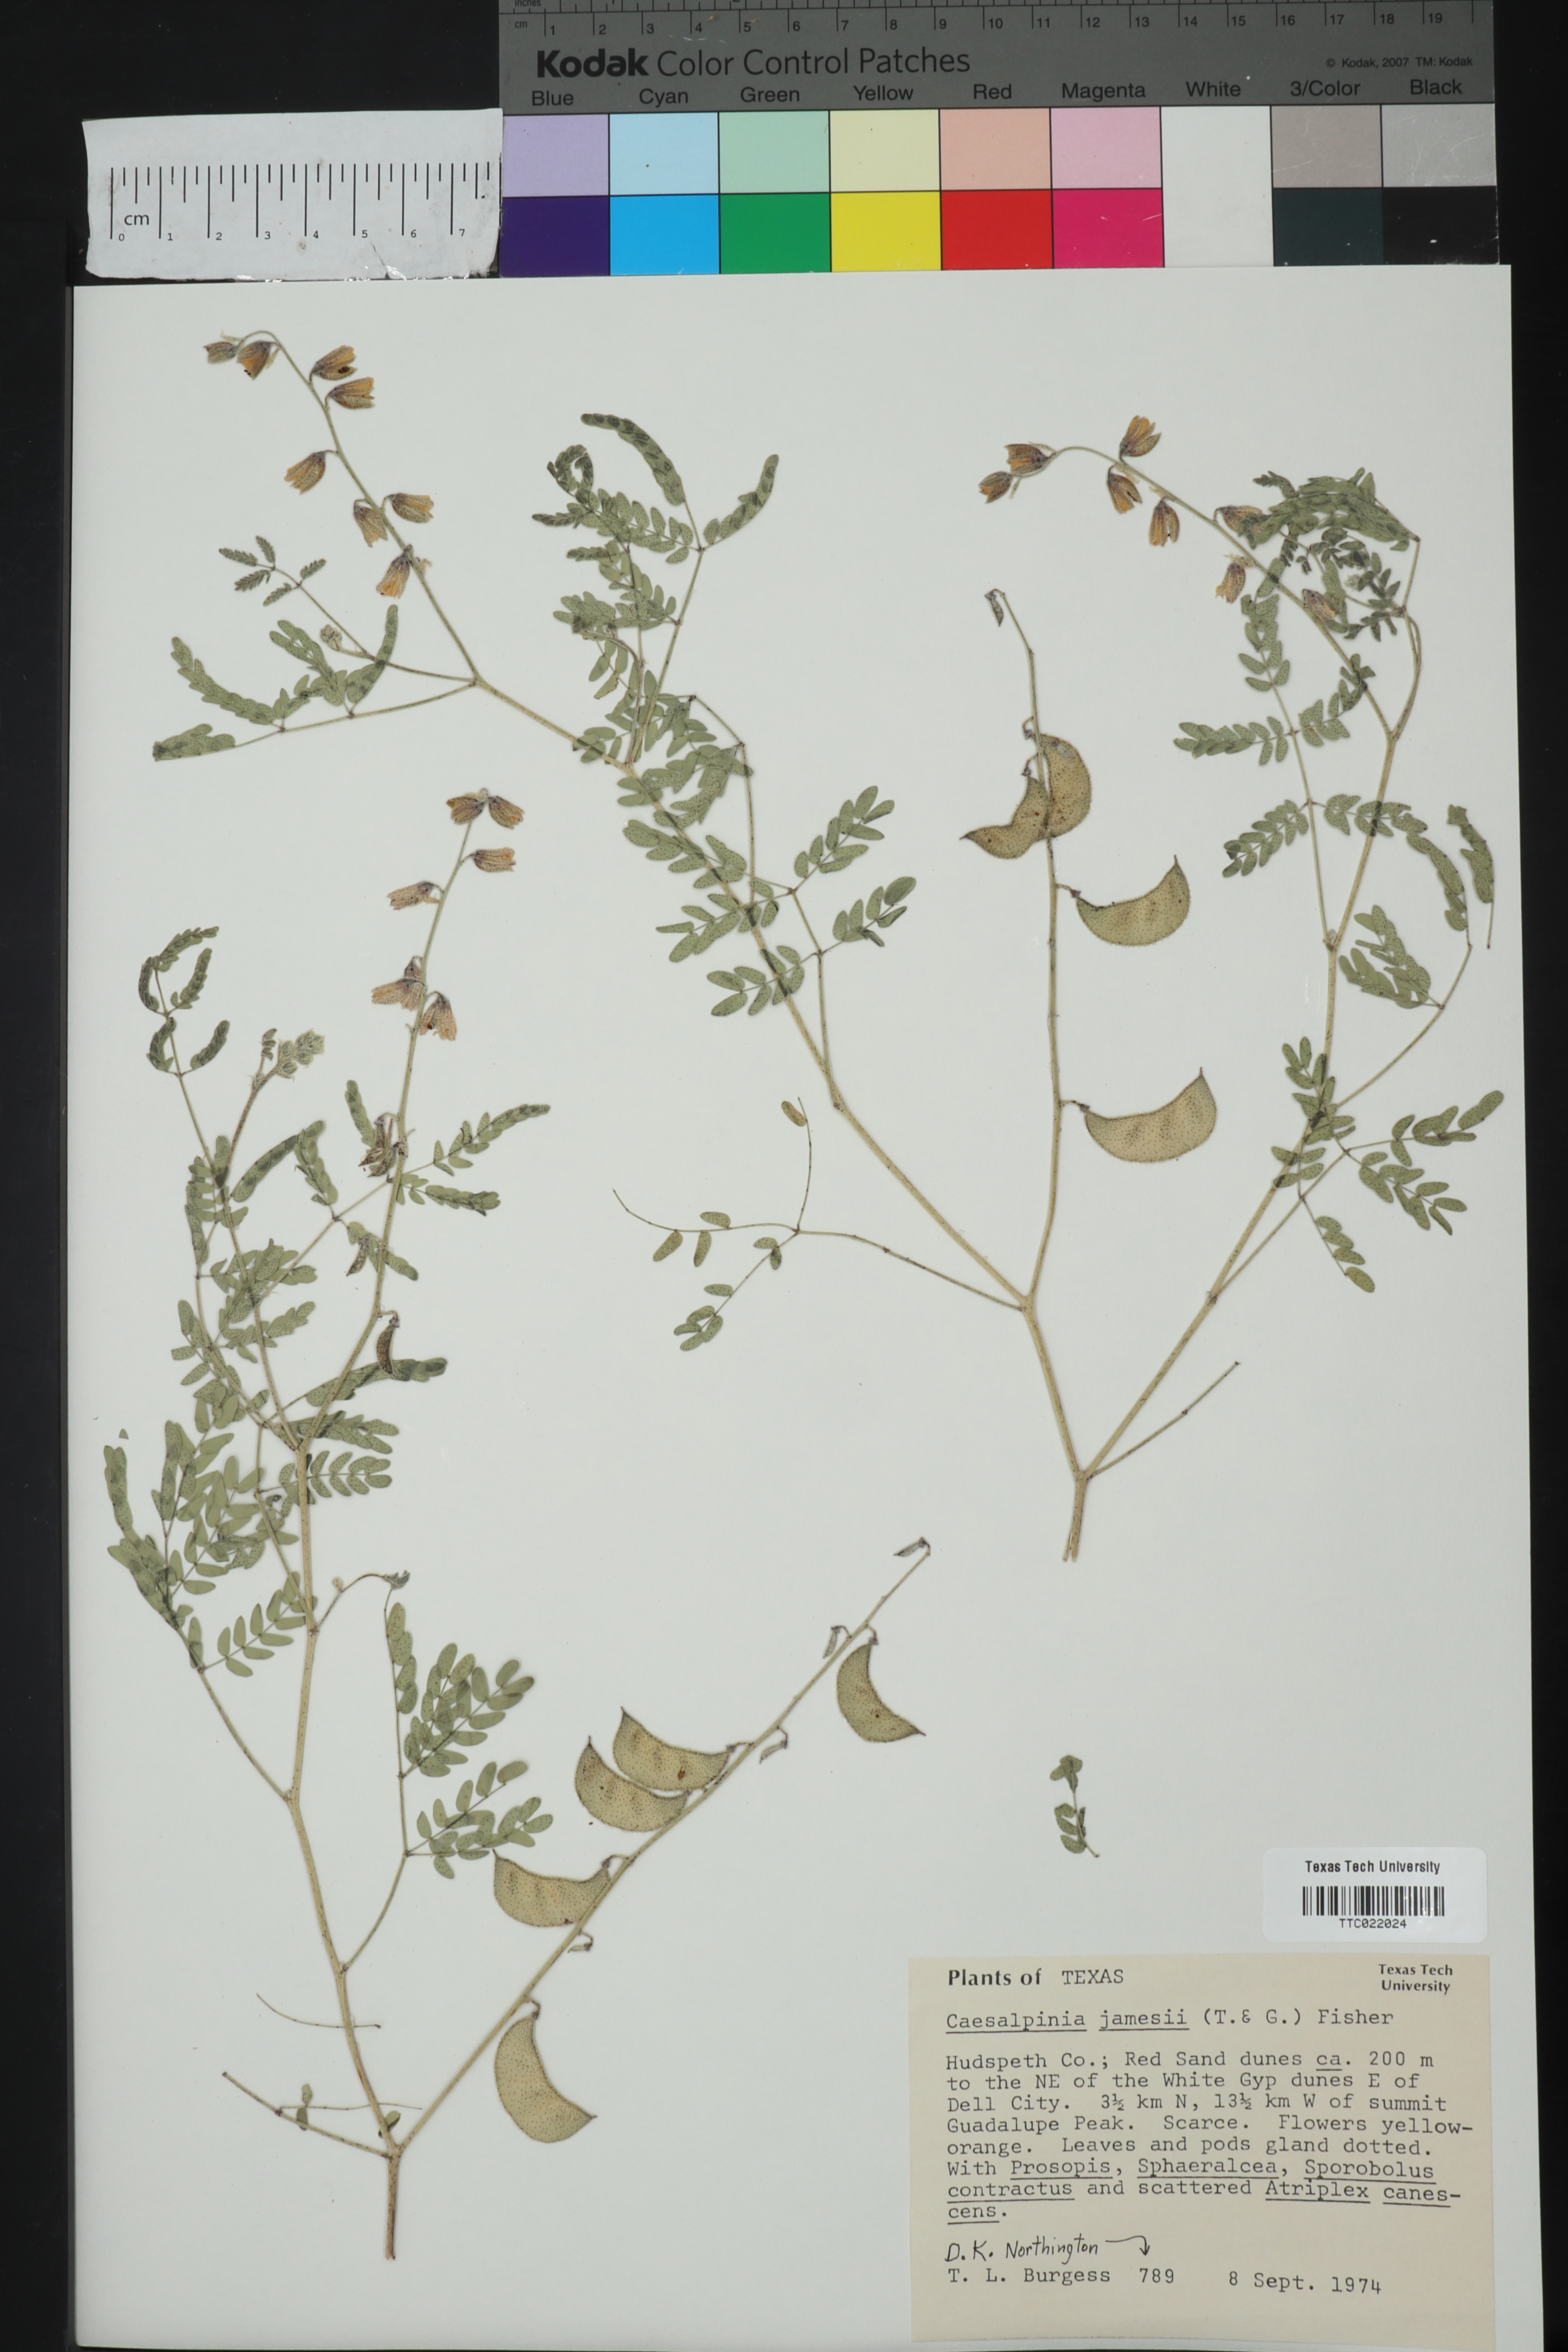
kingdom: Plantae
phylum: Tracheophyta
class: Magnoliopsida
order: Fabales
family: Fabaceae
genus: Pomaria
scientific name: Pomaria jamesii
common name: James' caesalpinia
